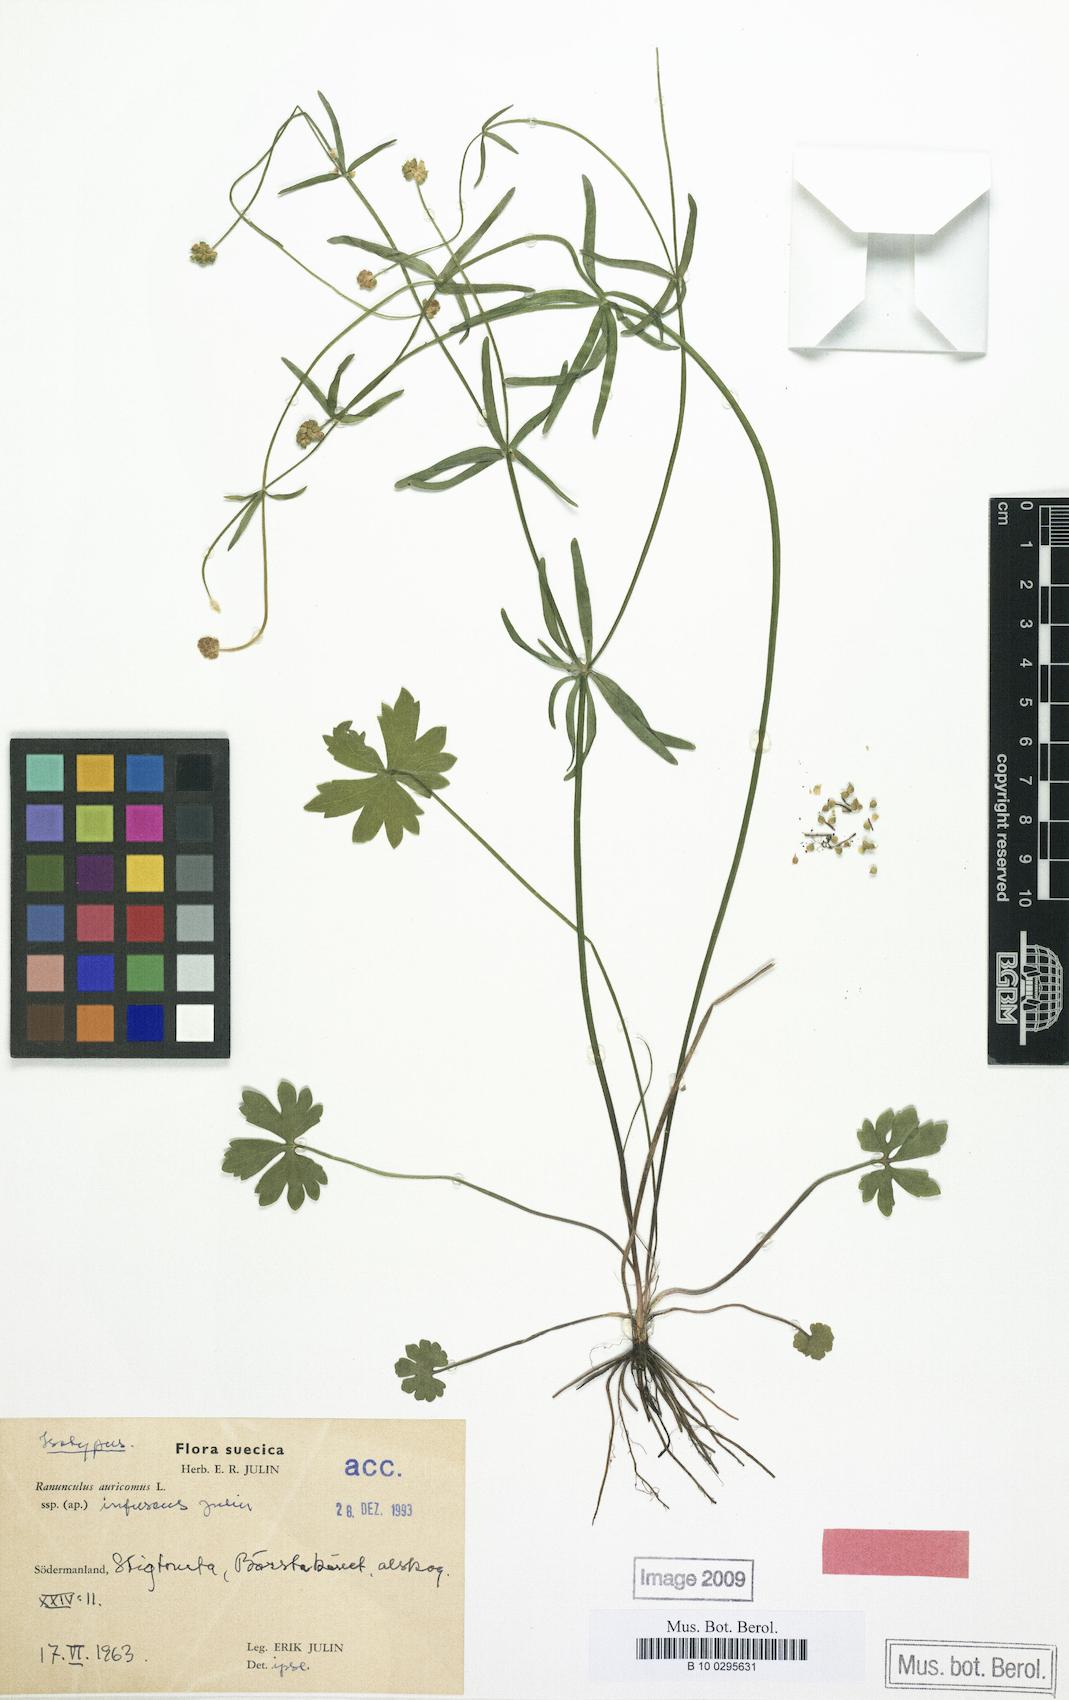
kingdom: Plantae
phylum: Tracheophyta
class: Magnoliopsida
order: Ranunculales
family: Ranunculaceae
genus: Ranunculus
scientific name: Ranunculus infuscus
